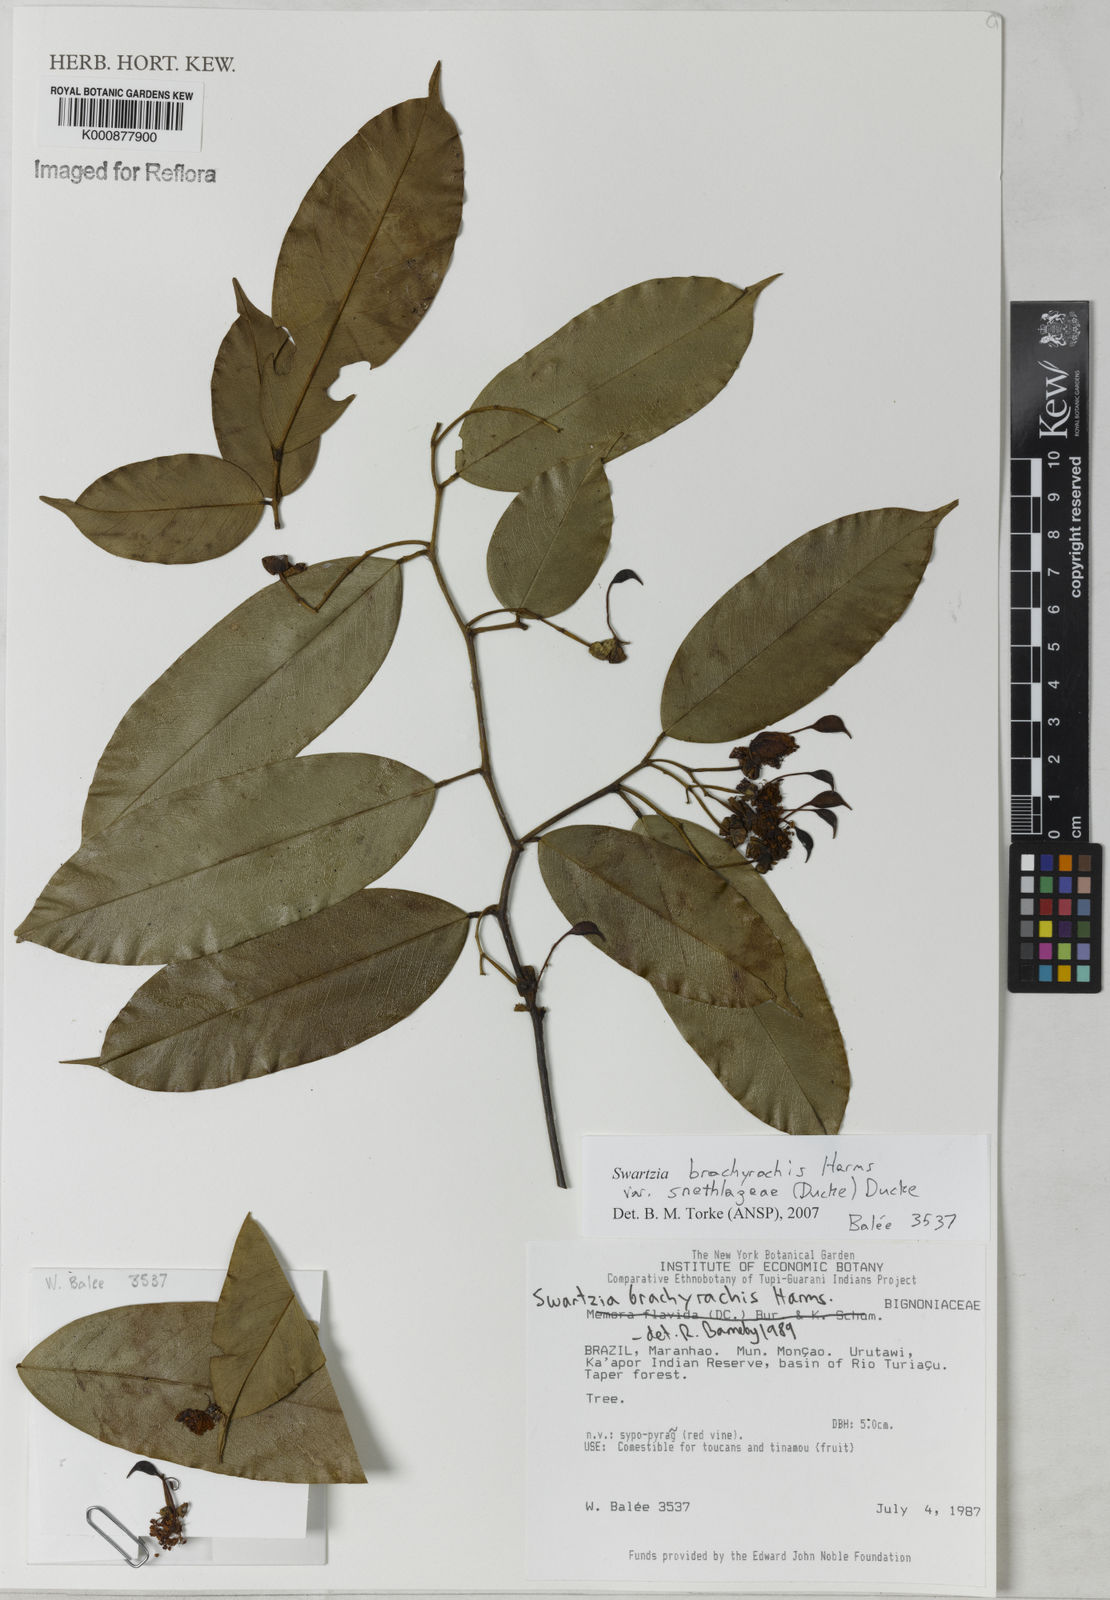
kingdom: Plantae
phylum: Tracheophyta
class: Magnoliopsida
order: Fabales
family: Fabaceae
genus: Swartzia
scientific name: Swartzia
